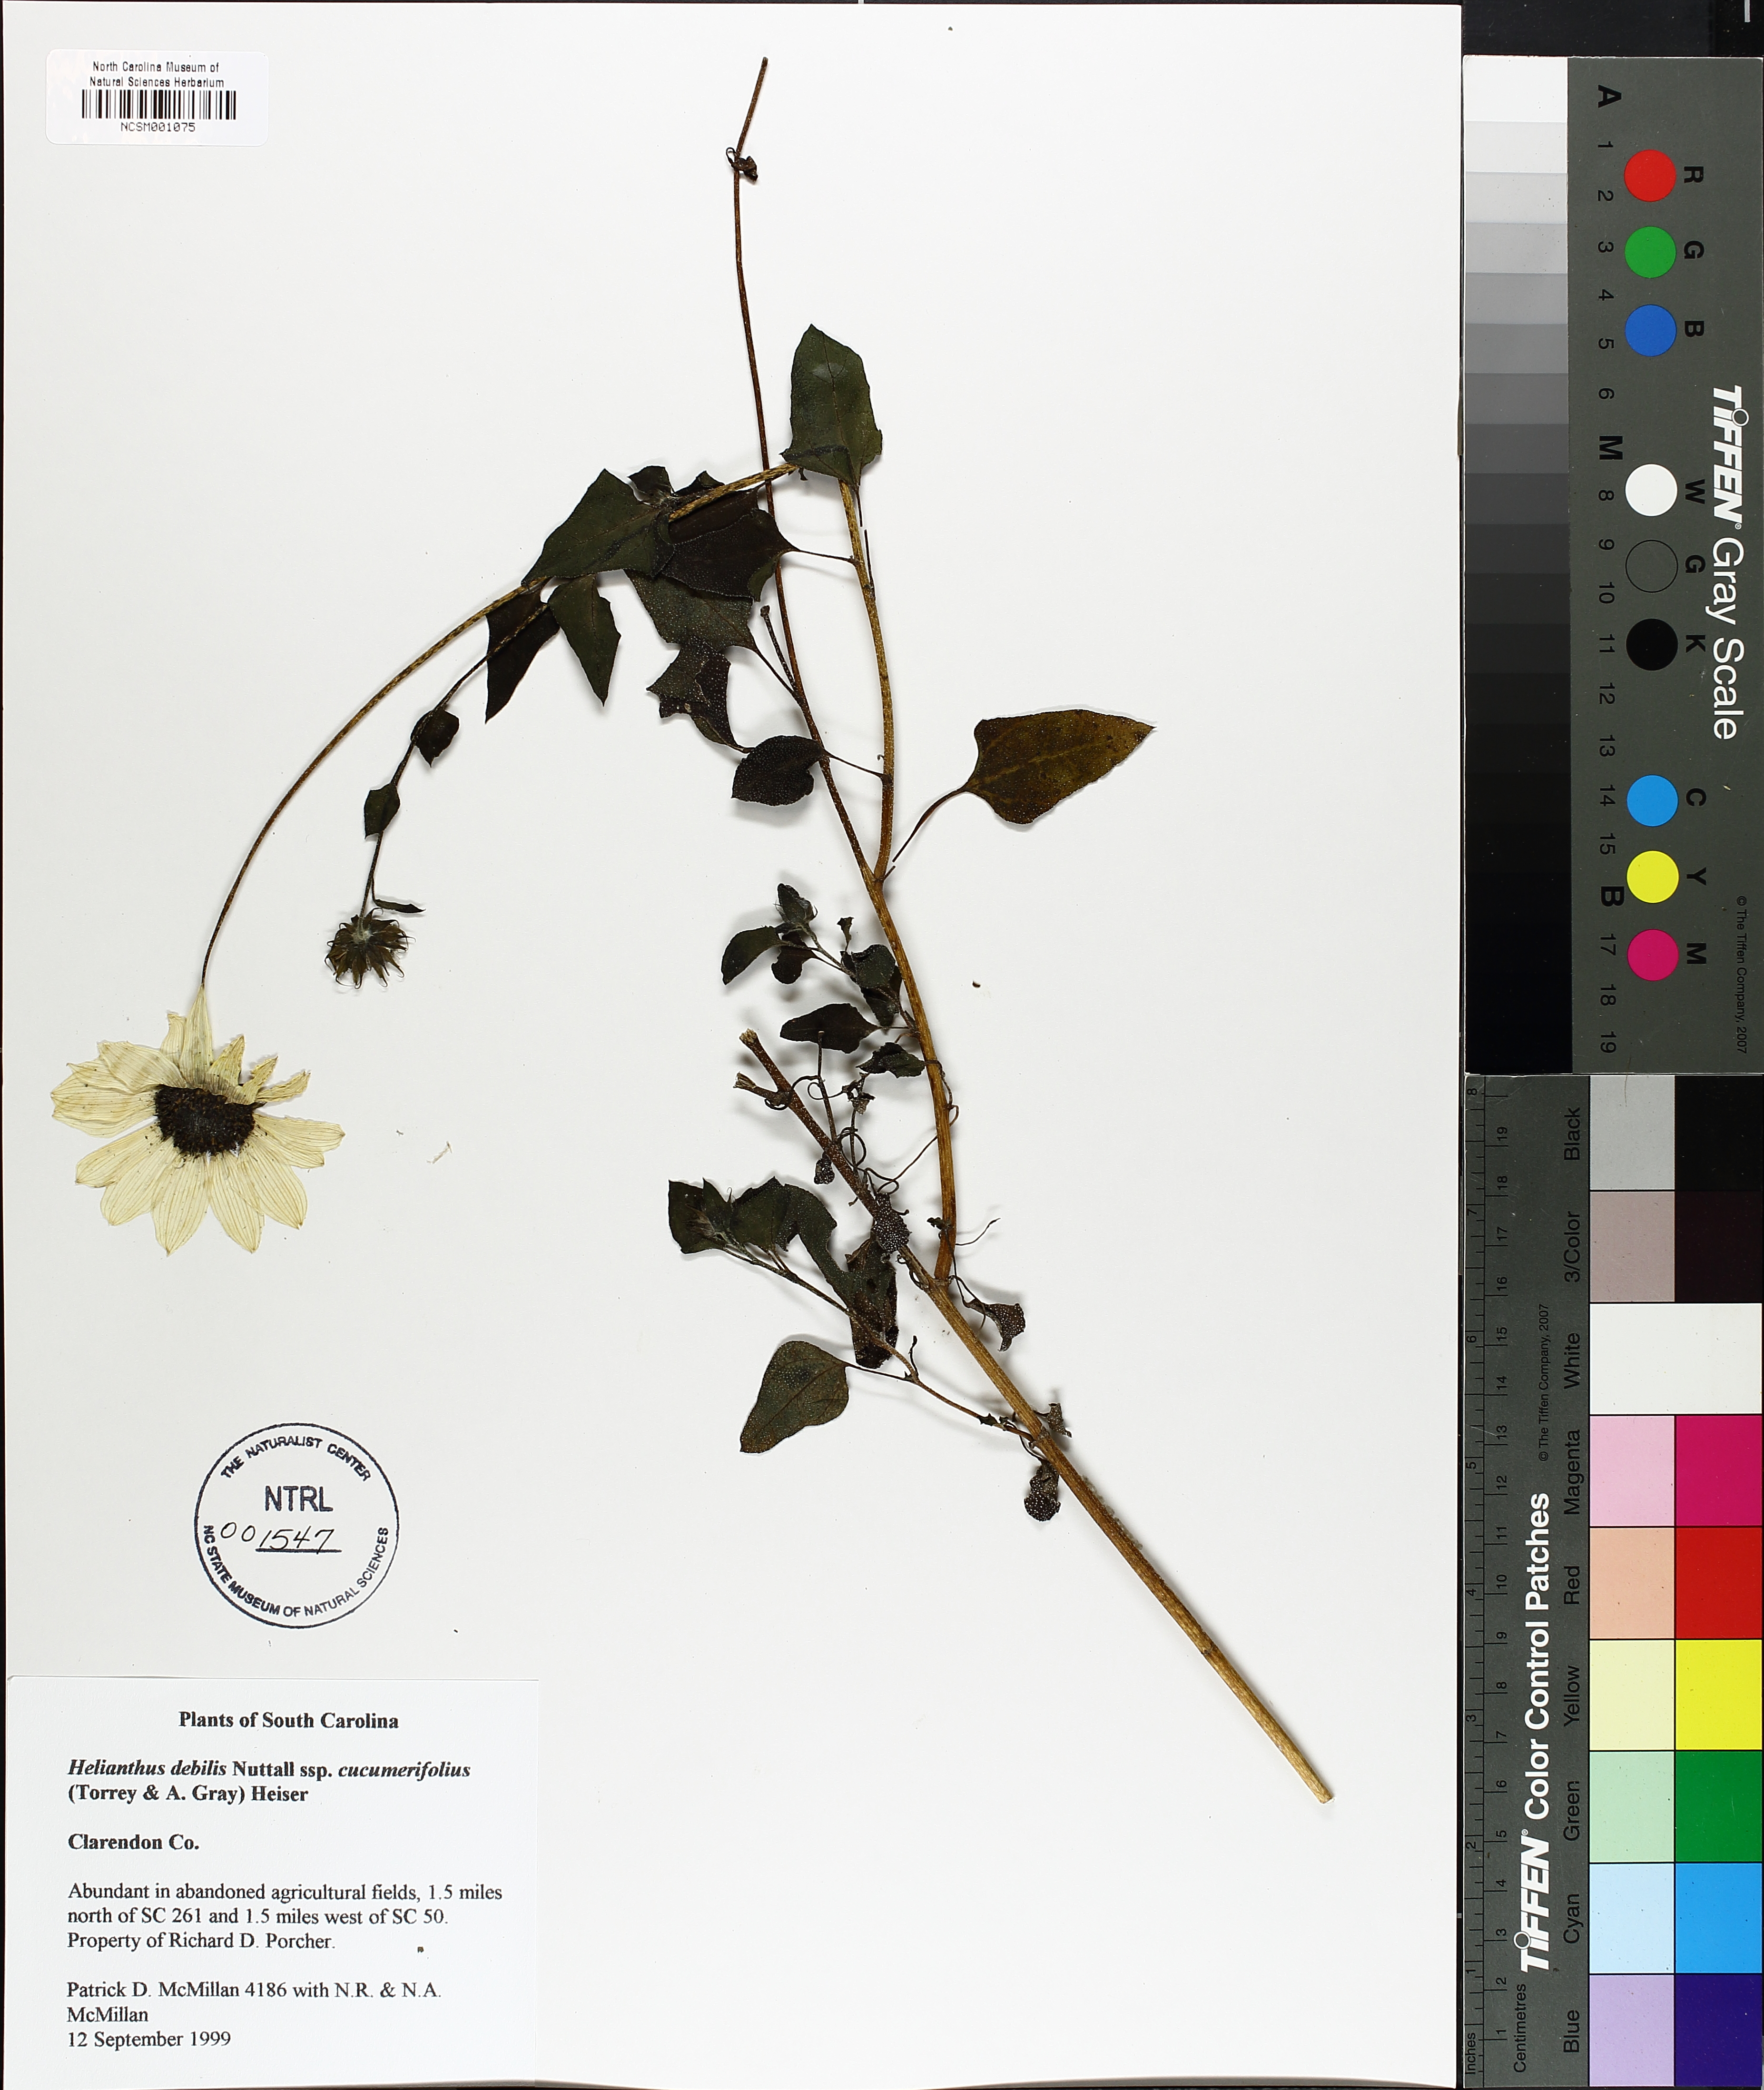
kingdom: Plantae
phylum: Tracheophyta
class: Magnoliopsida
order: Asterales
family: Asteraceae
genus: Helianthus
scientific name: Helianthus debilis
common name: Weak sunflower
